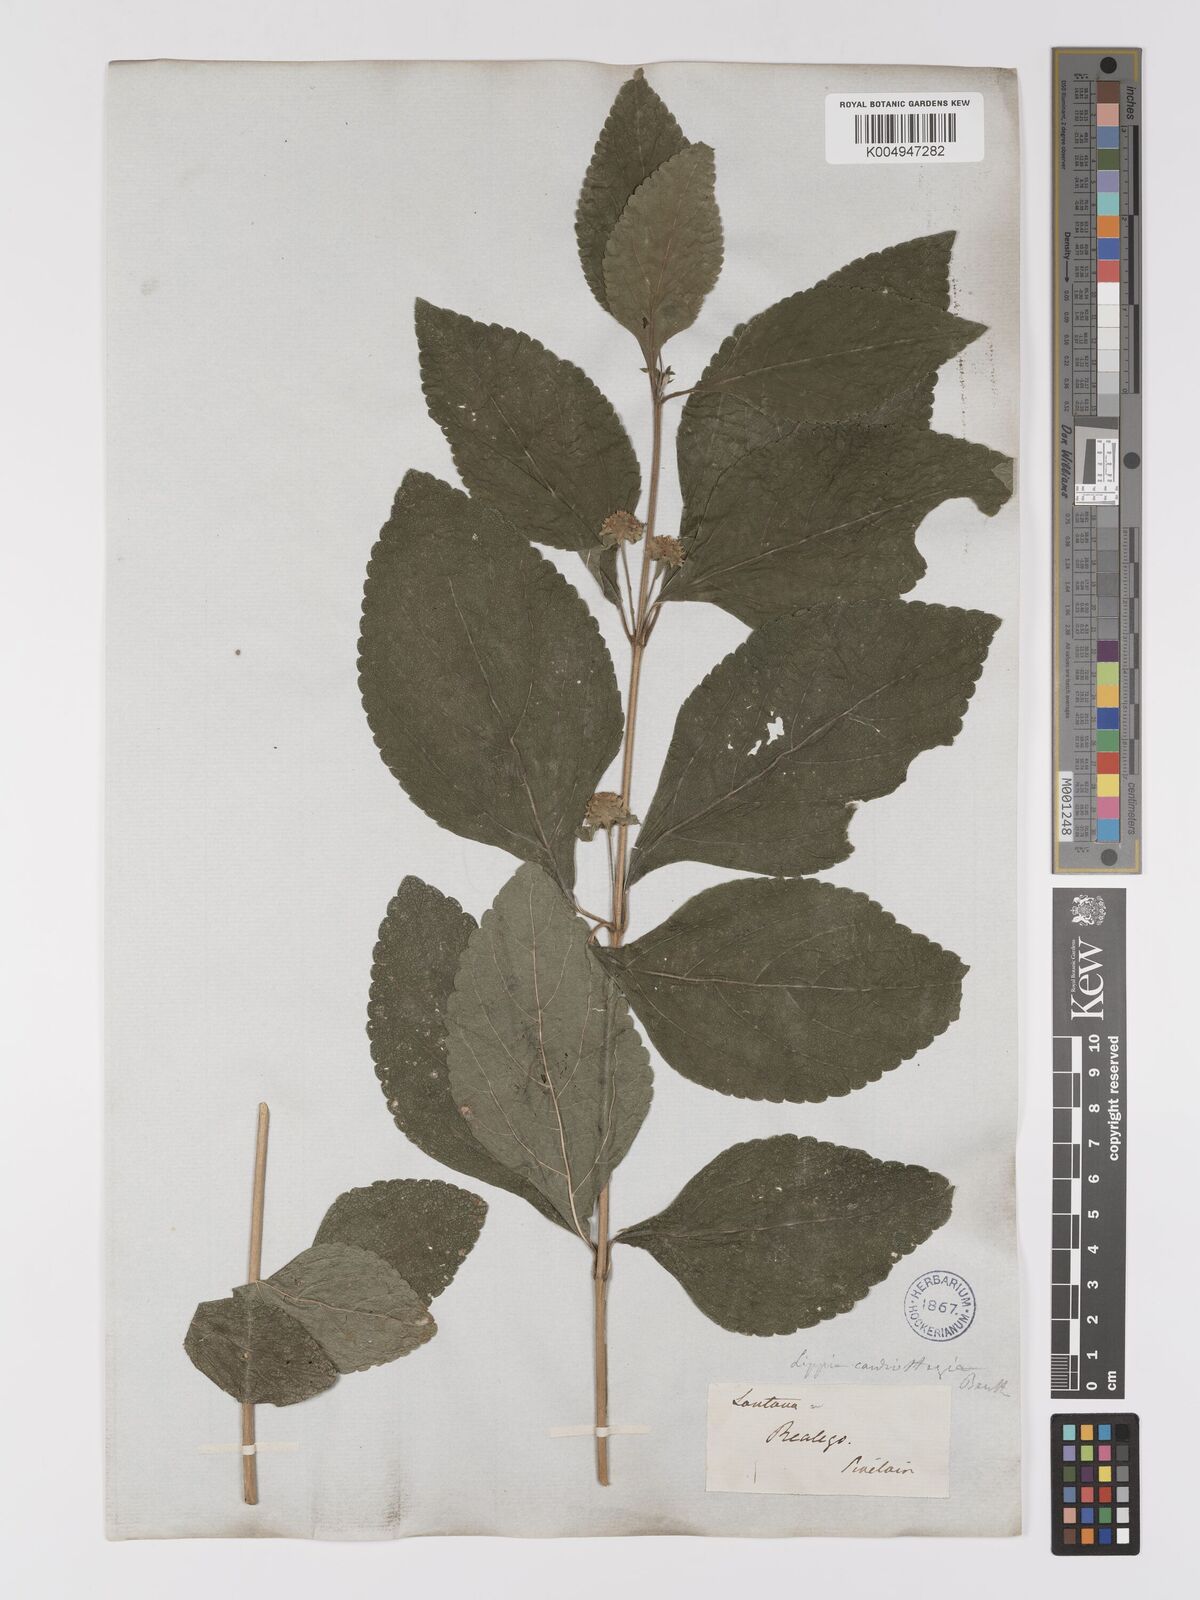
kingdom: Plantae
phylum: Tracheophyta
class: Magnoliopsida
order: Lamiales
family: Verbenaceae
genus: Lippia
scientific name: Lippia cardiostegia
